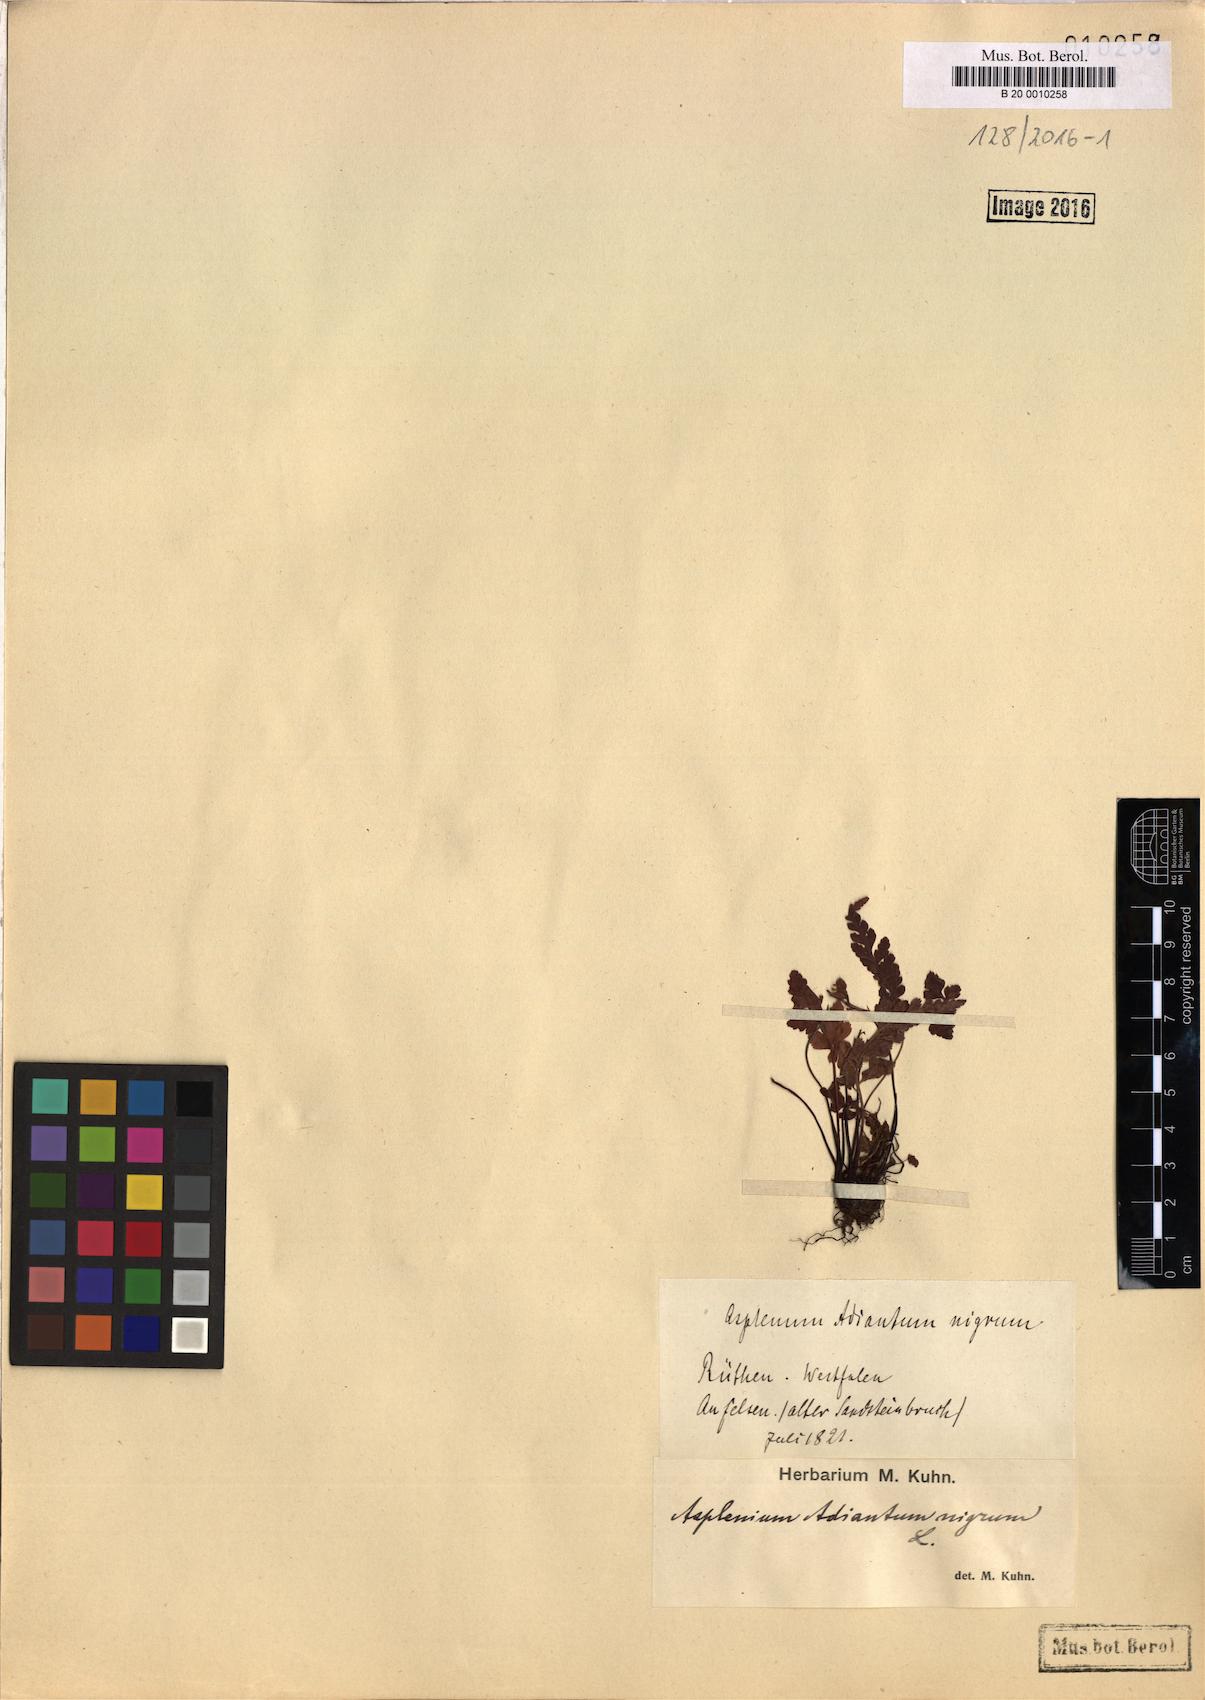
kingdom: Plantae
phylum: Tracheophyta
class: Polypodiopsida
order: Polypodiales
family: Aspleniaceae
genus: Asplenium
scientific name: Asplenium adiantum-nigrum
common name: Black spleenwort
